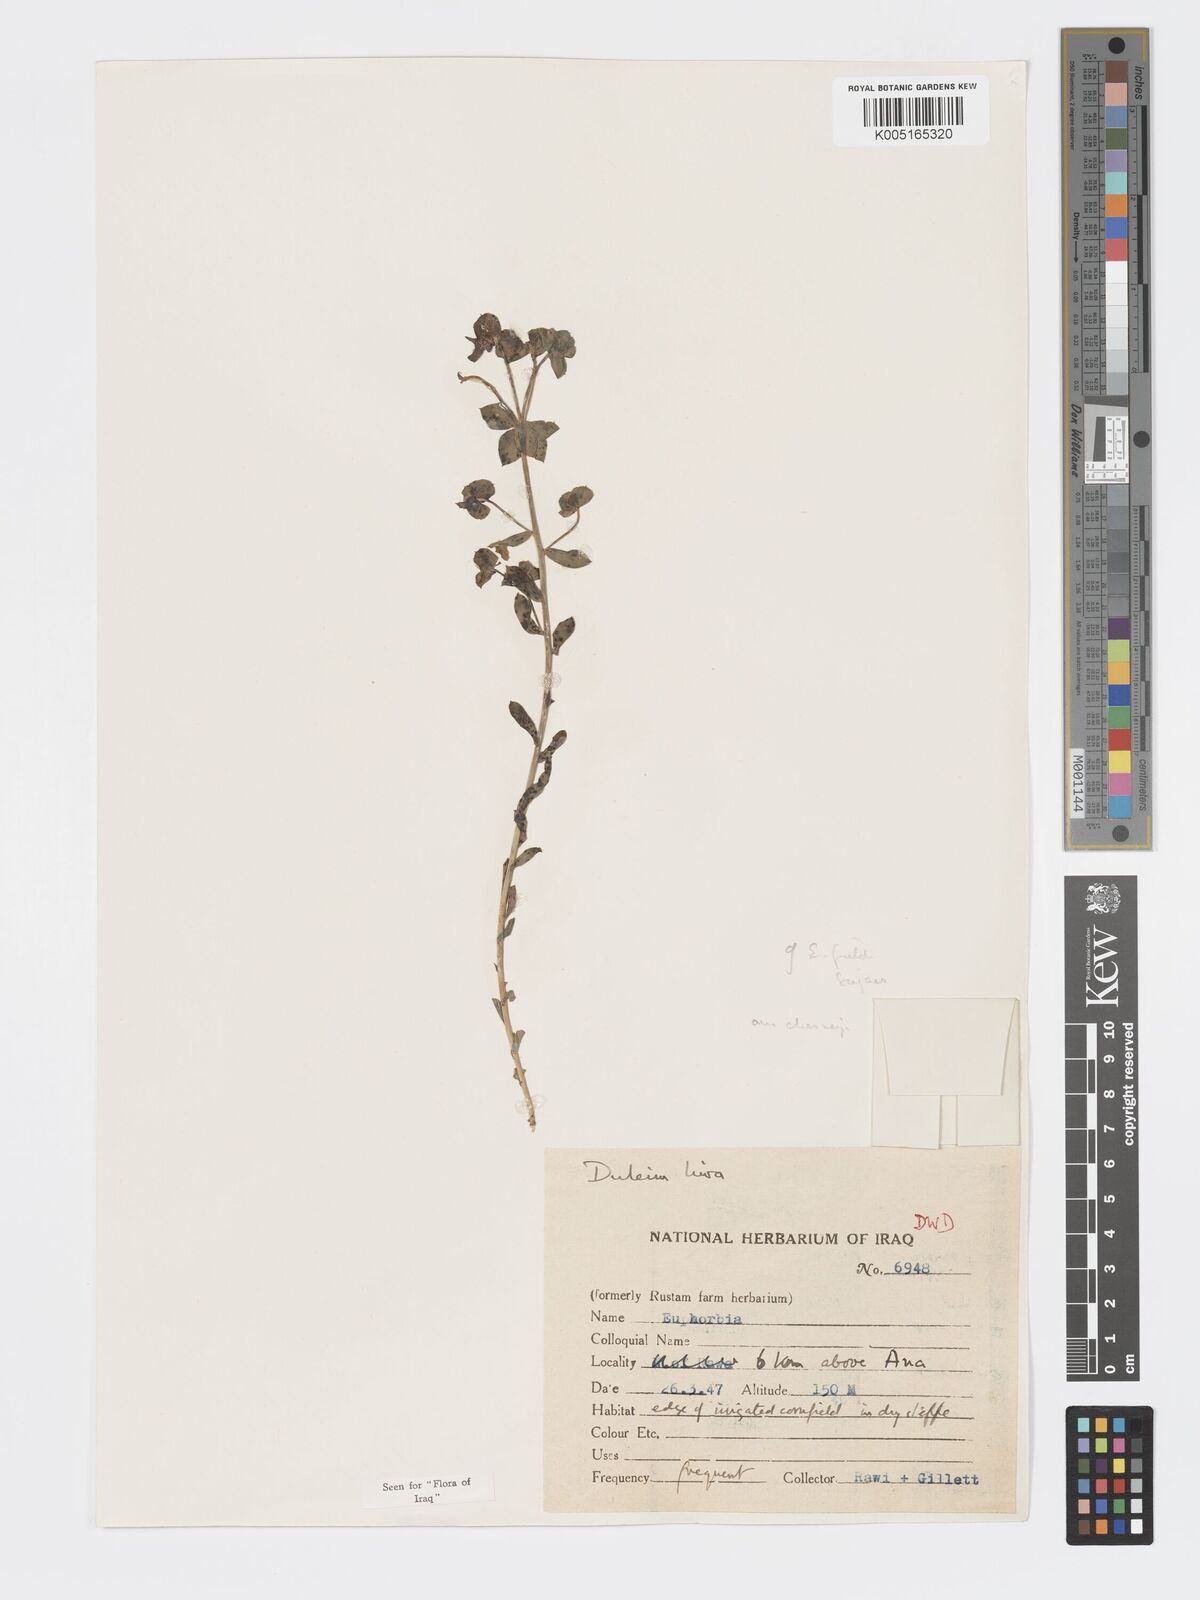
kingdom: Plantae
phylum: Tracheophyta
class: Magnoliopsida
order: Malpighiales
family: Euphorbiaceae
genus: Euphorbia
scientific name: Euphorbia cuspidata
